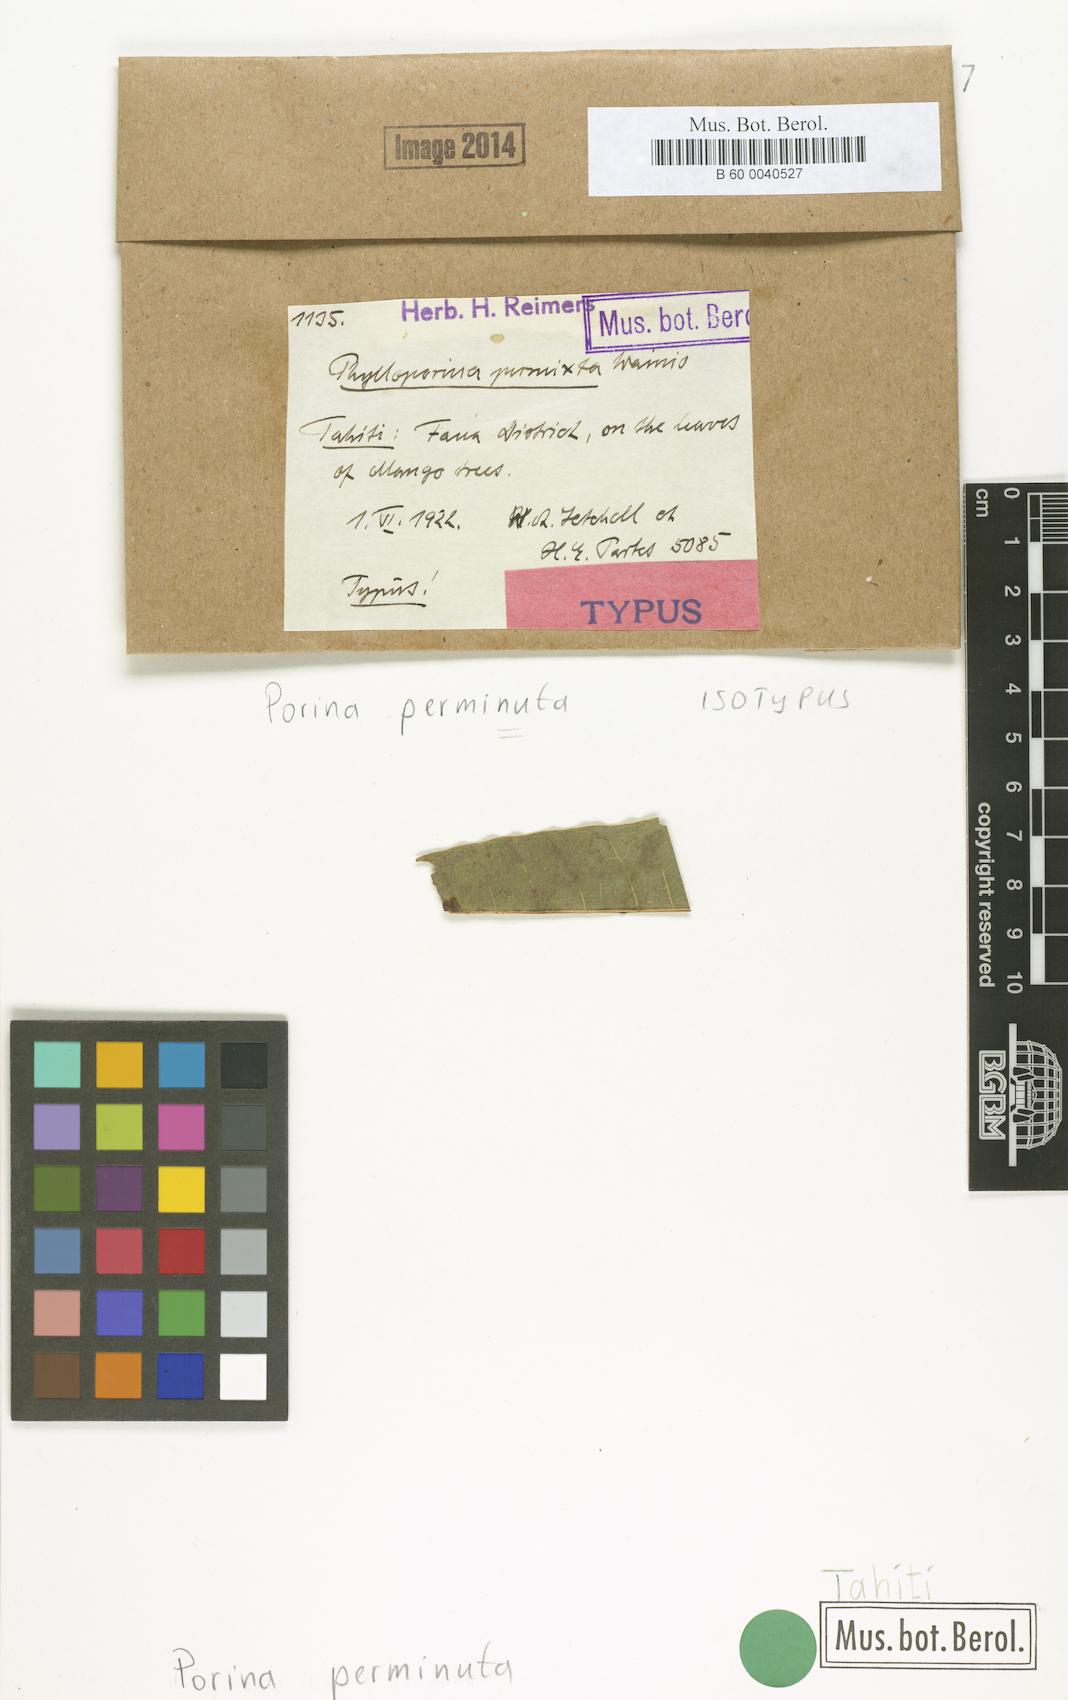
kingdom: Fungi
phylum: Ascomycota
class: Lecanoromycetes
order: Pertusariales
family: Pertusariaceae
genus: Porina
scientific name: Porina perminuta
